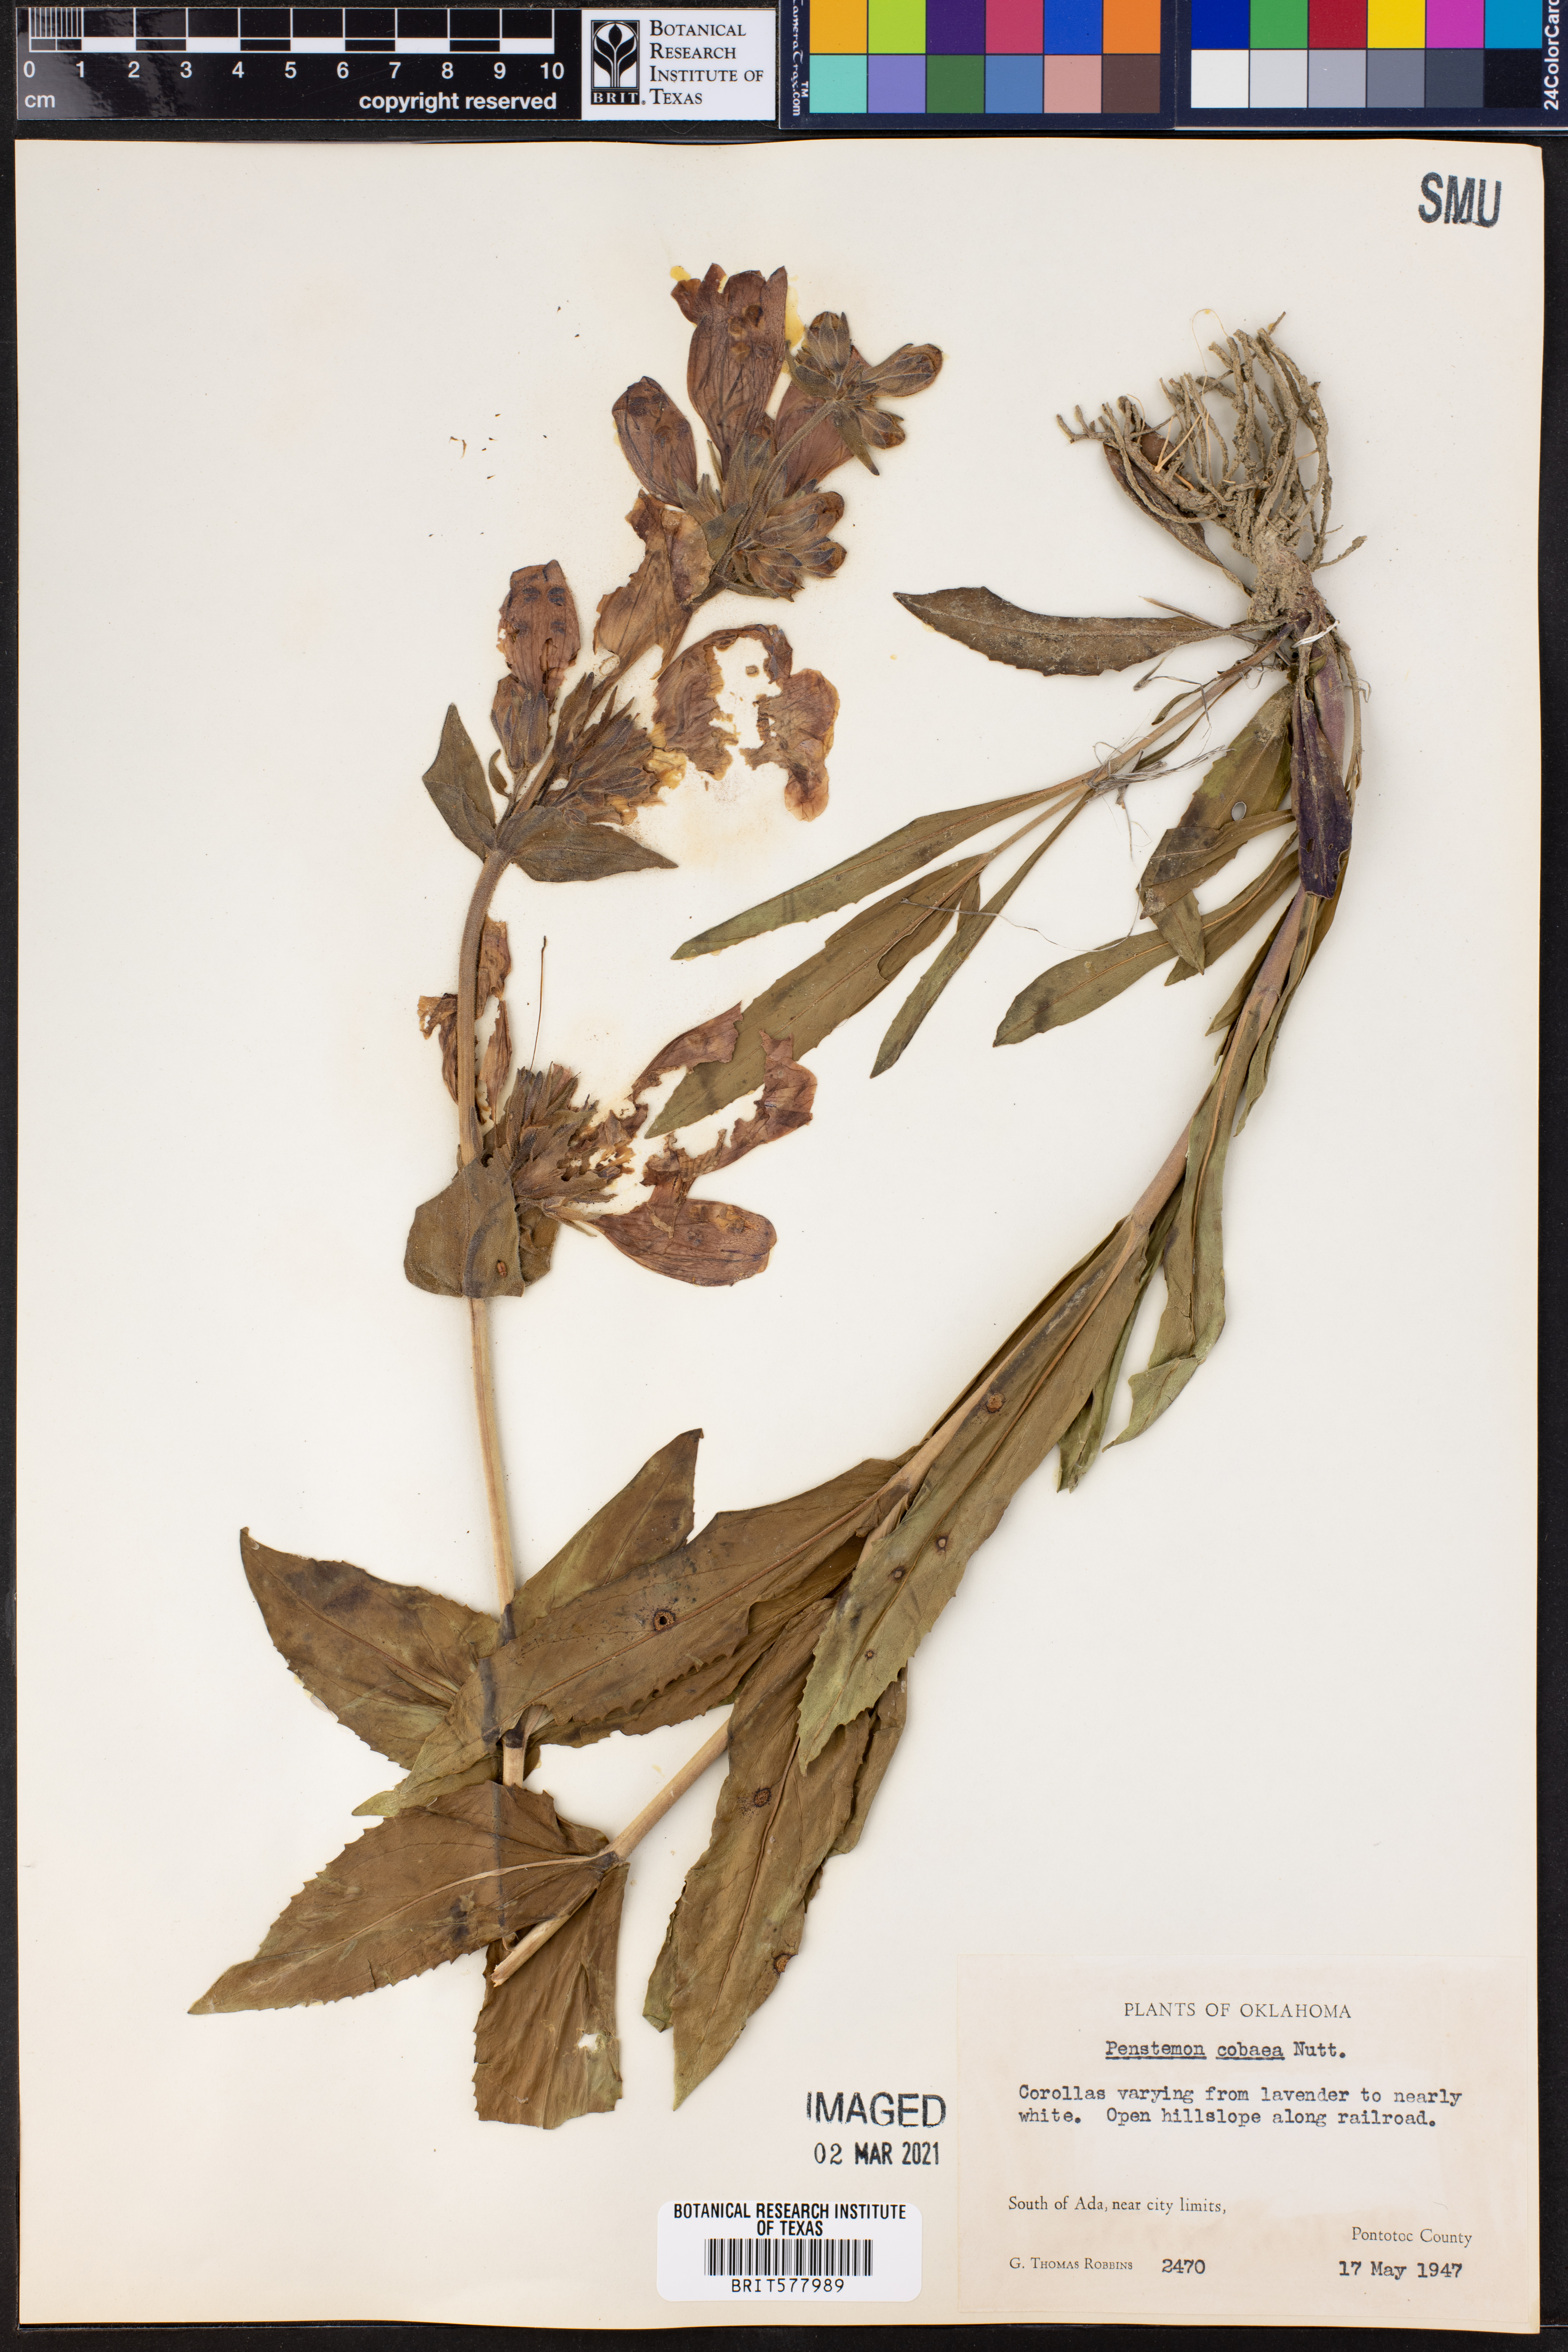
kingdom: Plantae
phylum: Tracheophyta
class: Magnoliopsida
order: Lamiales
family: Plantaginaceae
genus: Penstemon
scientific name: Penstemon cobaea
